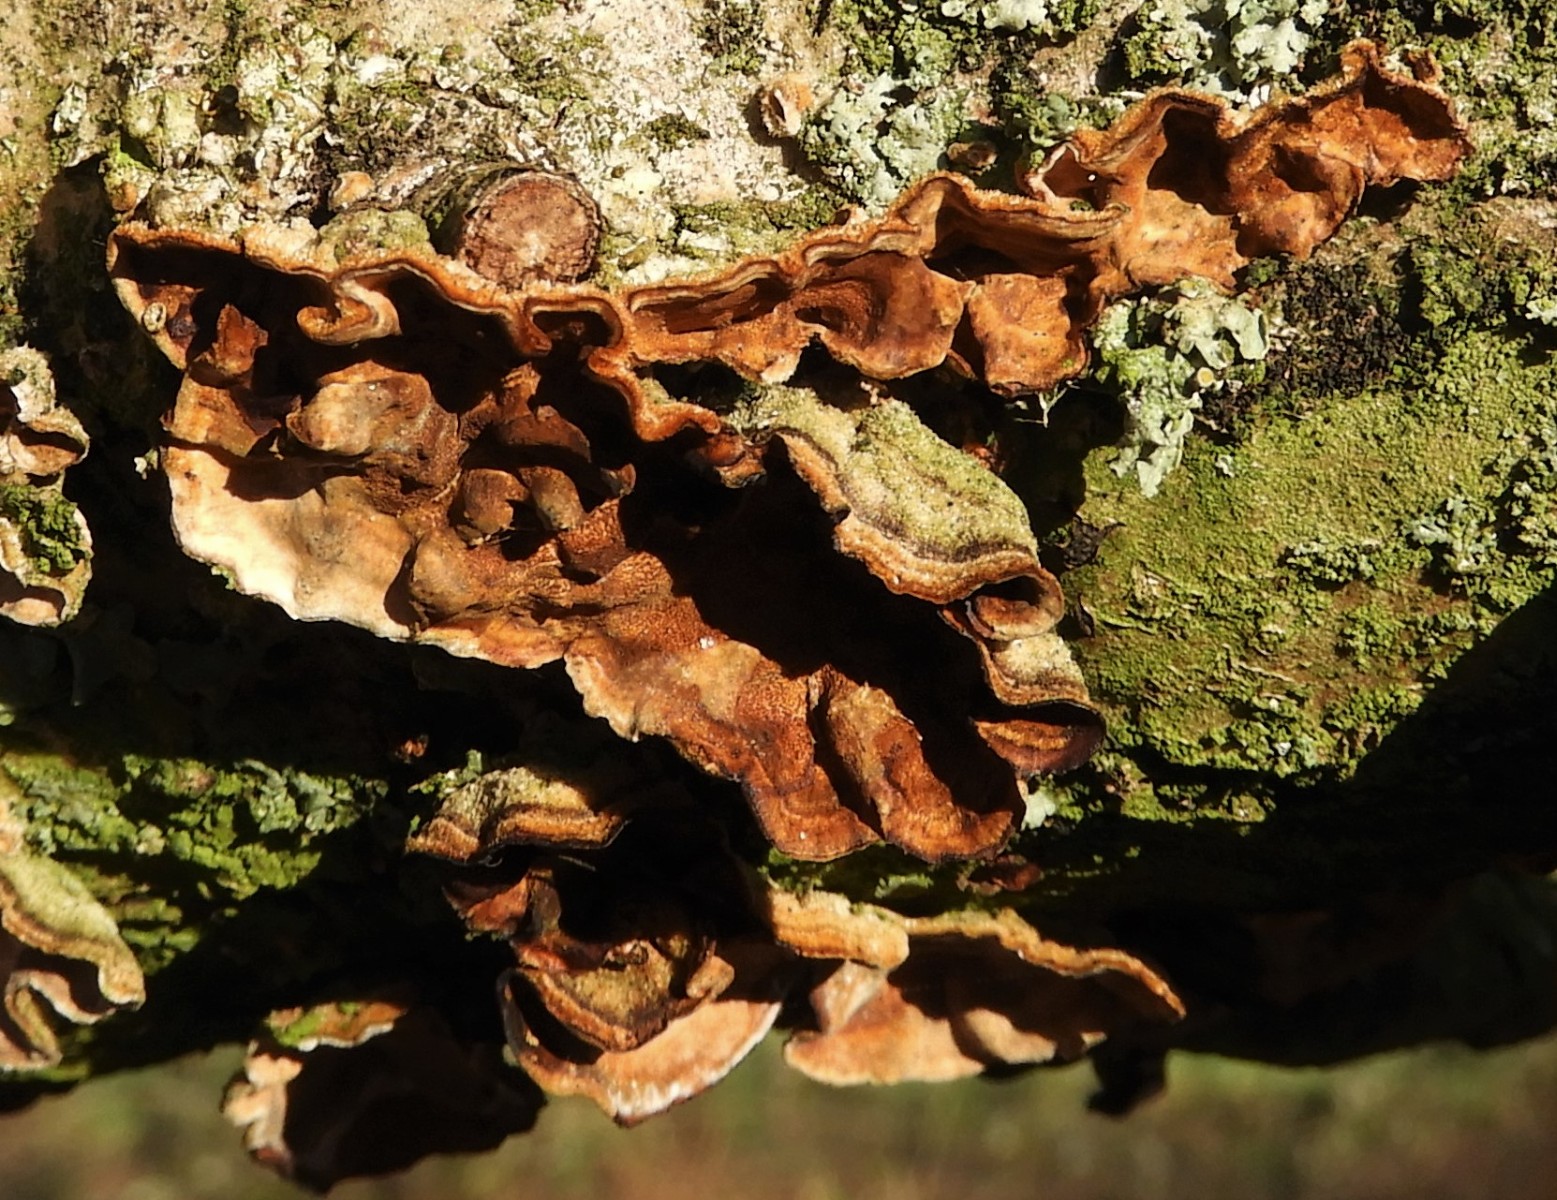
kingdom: Fungi
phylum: Basidiomycota
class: Agaricomycetes
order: Russulales
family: Stereaceae
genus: Stereum
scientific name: Stereum hirsutum
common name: håret lædersvamp
